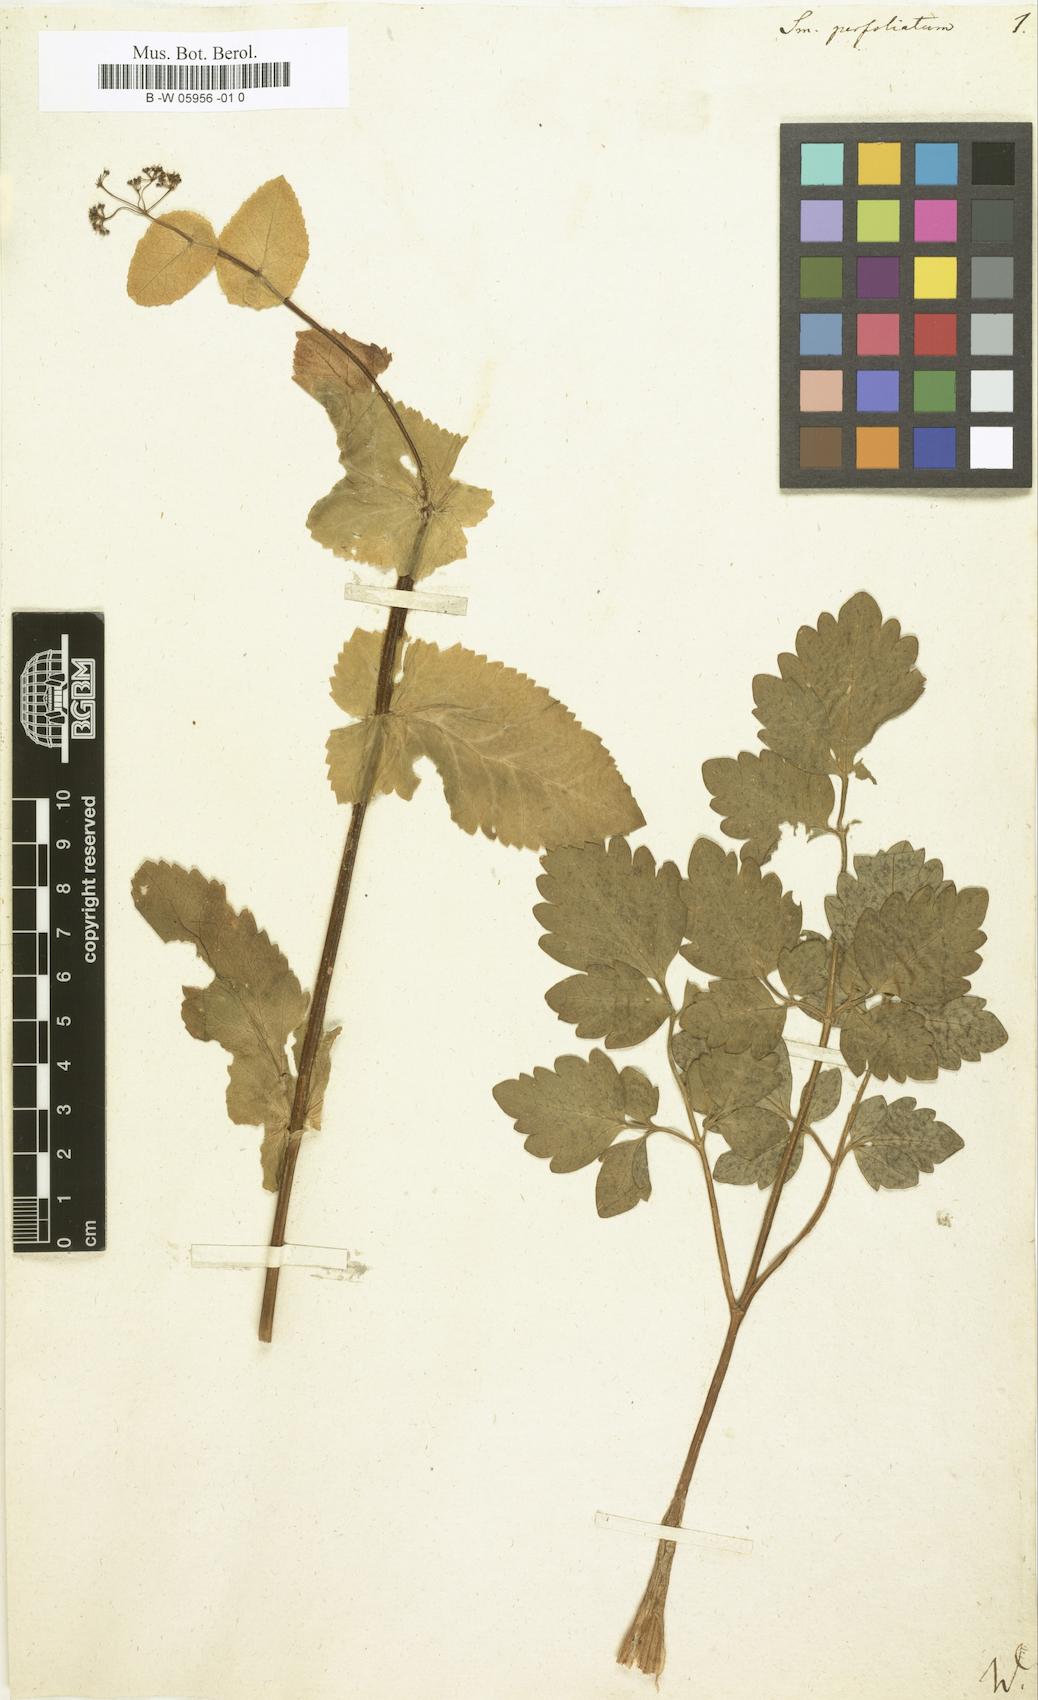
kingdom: Plantae
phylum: Tracheophyta
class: Magnoliopsida
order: Apiales
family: Apiaceae
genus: Smyrnium
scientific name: Smyrnium perfoliatum
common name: Perfoliate alexanders
